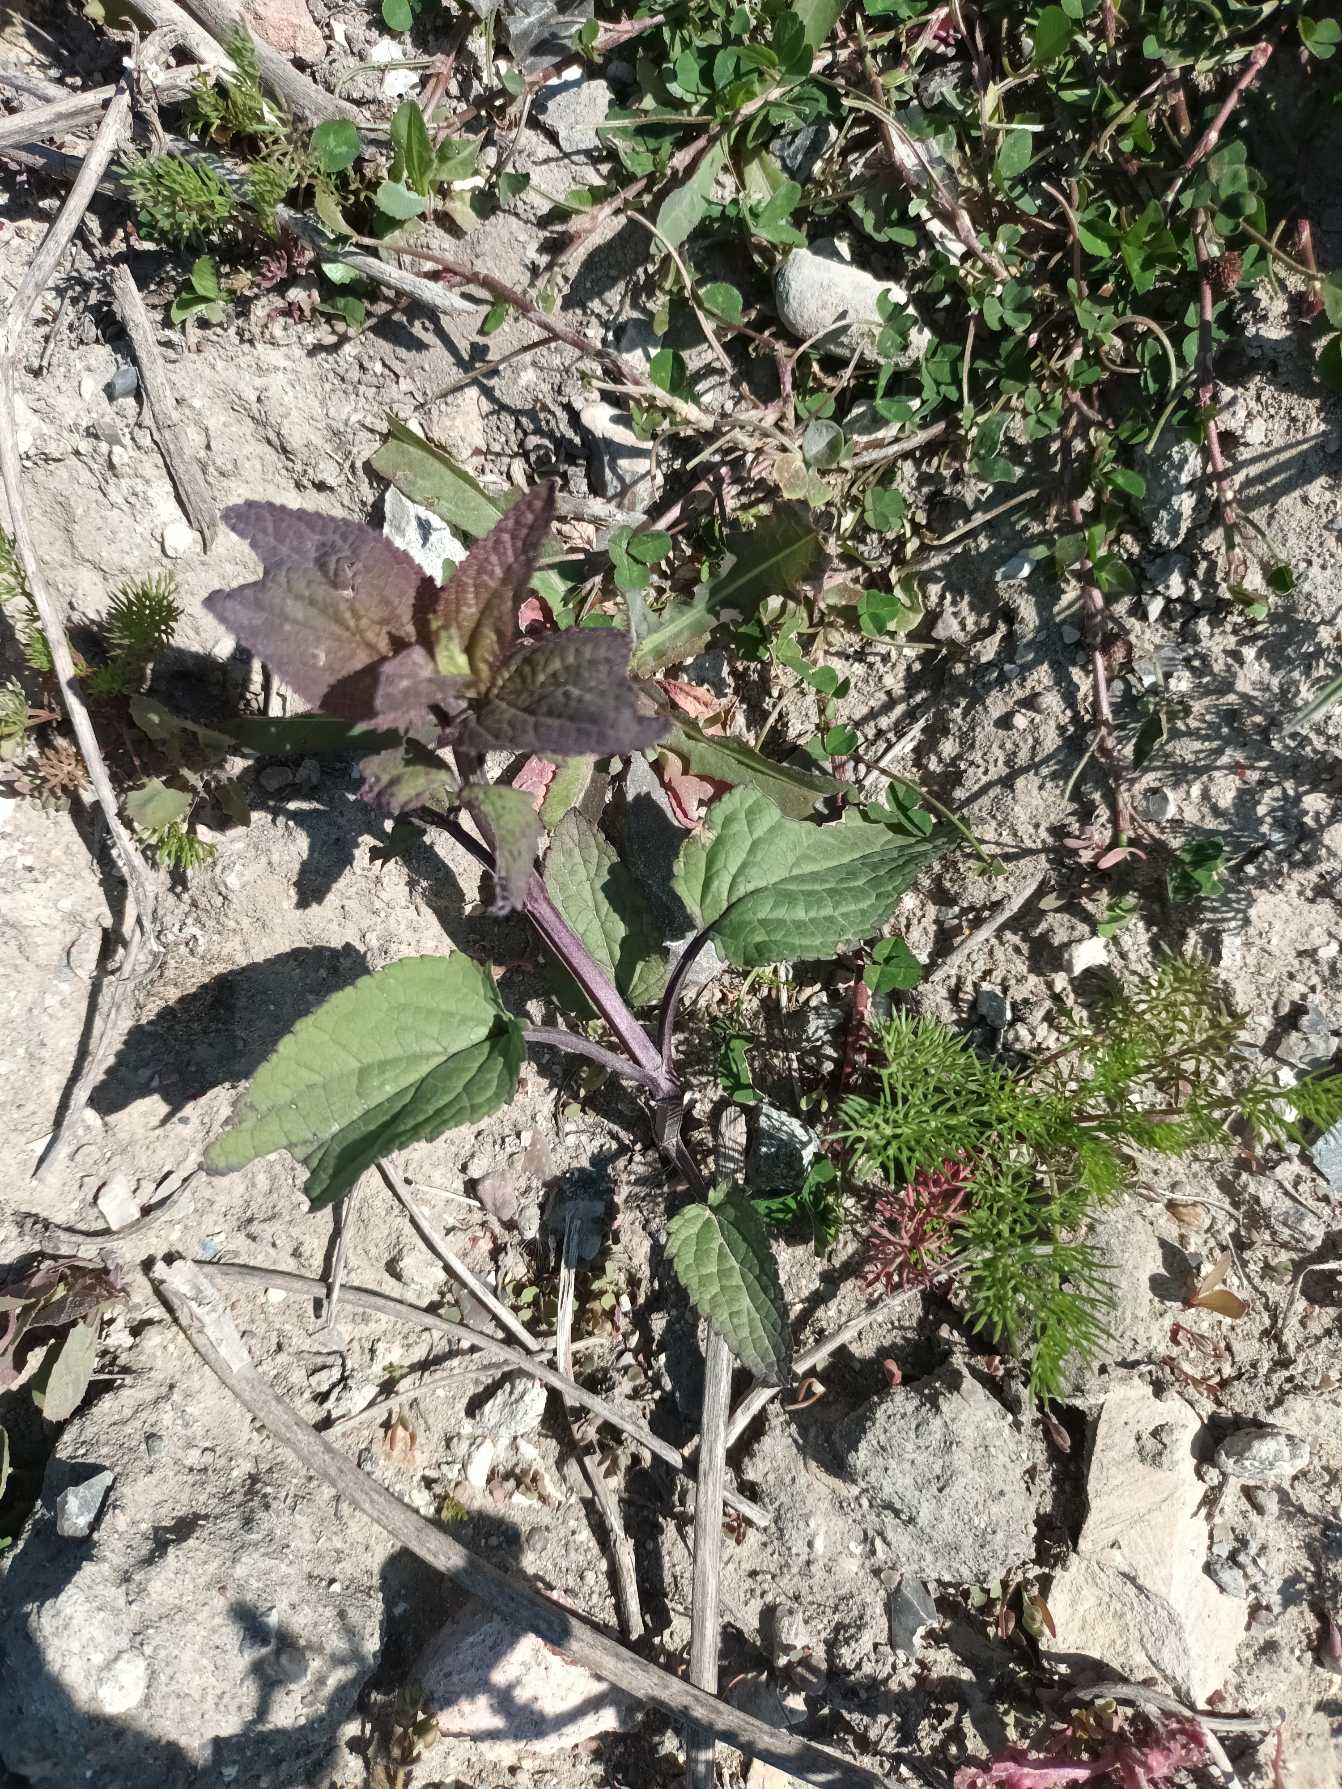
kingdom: Plantae
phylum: Tracheophyta
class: Magnoliopsida
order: Lamiales
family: Scrophulariaceae
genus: Scrophularia
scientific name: Scrophularia nodosa
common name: Knoldet brunrod
